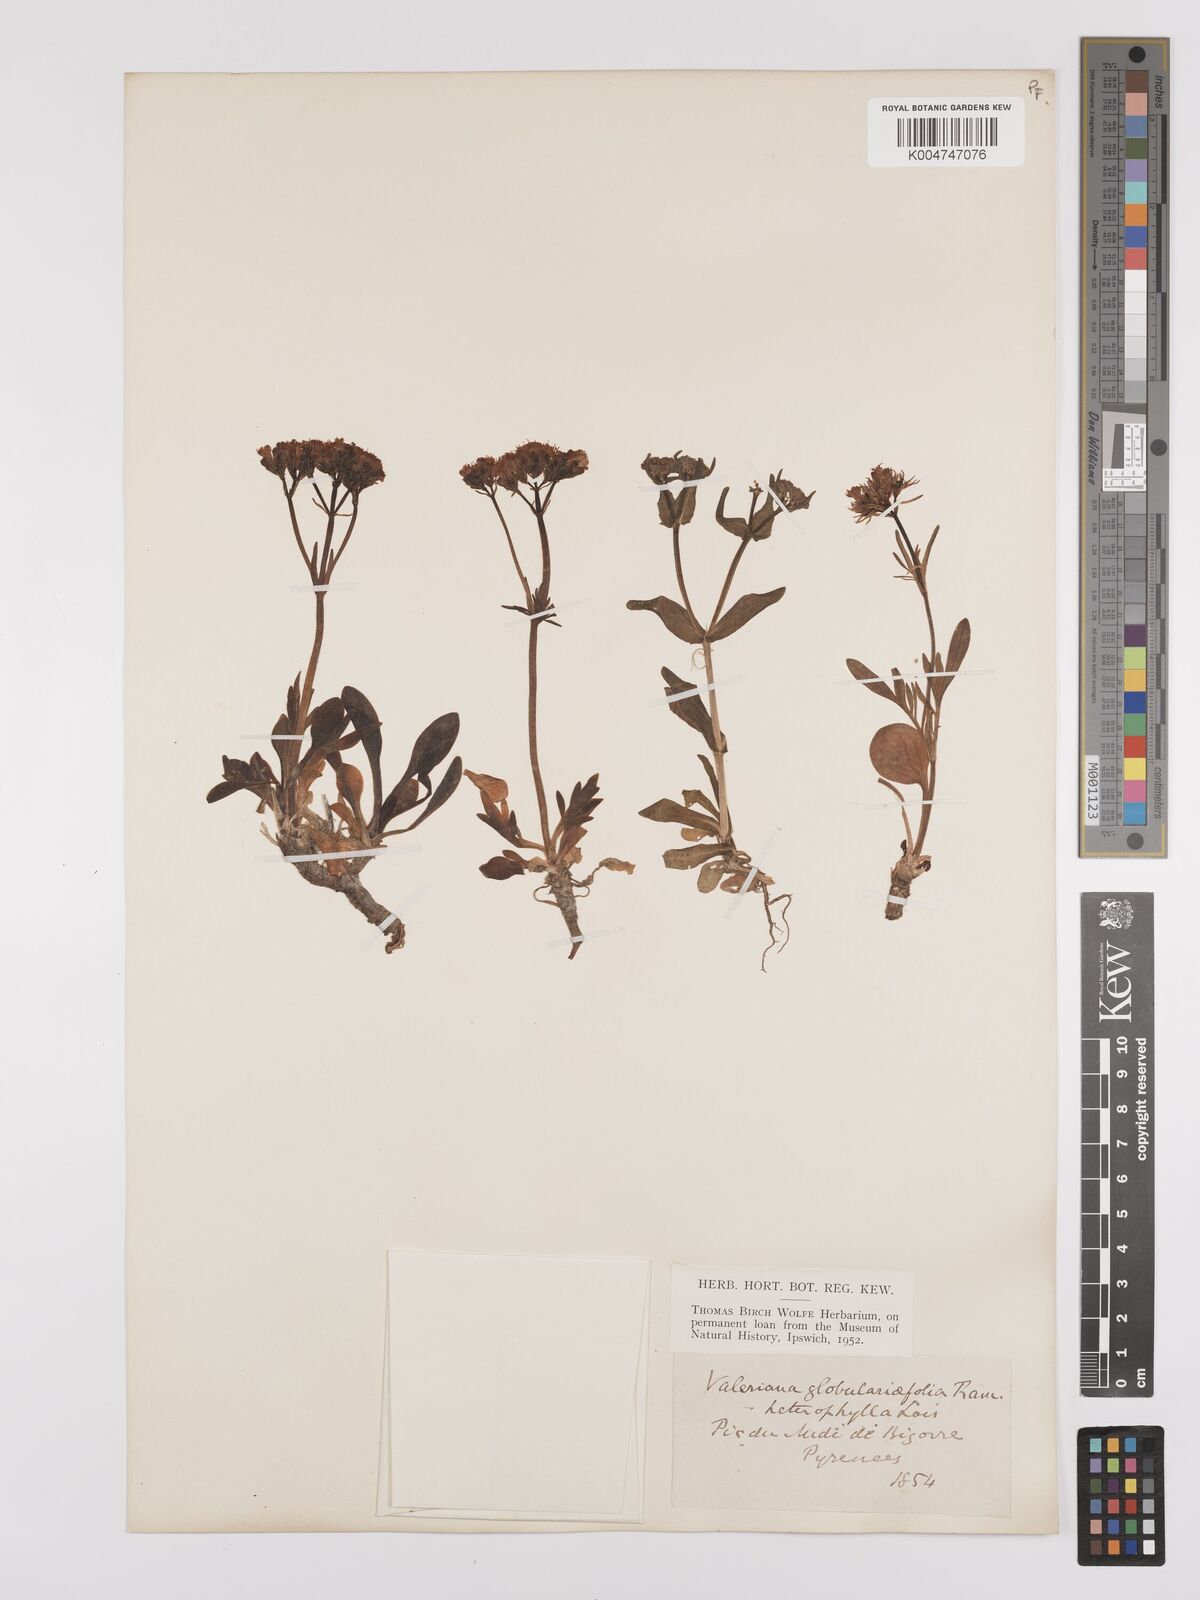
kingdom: Plantae
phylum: Tracheophyta
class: Magnoliopsida
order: Dipsacales
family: Caprifoliaceae
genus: Valeriana
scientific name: Valeriana apula
